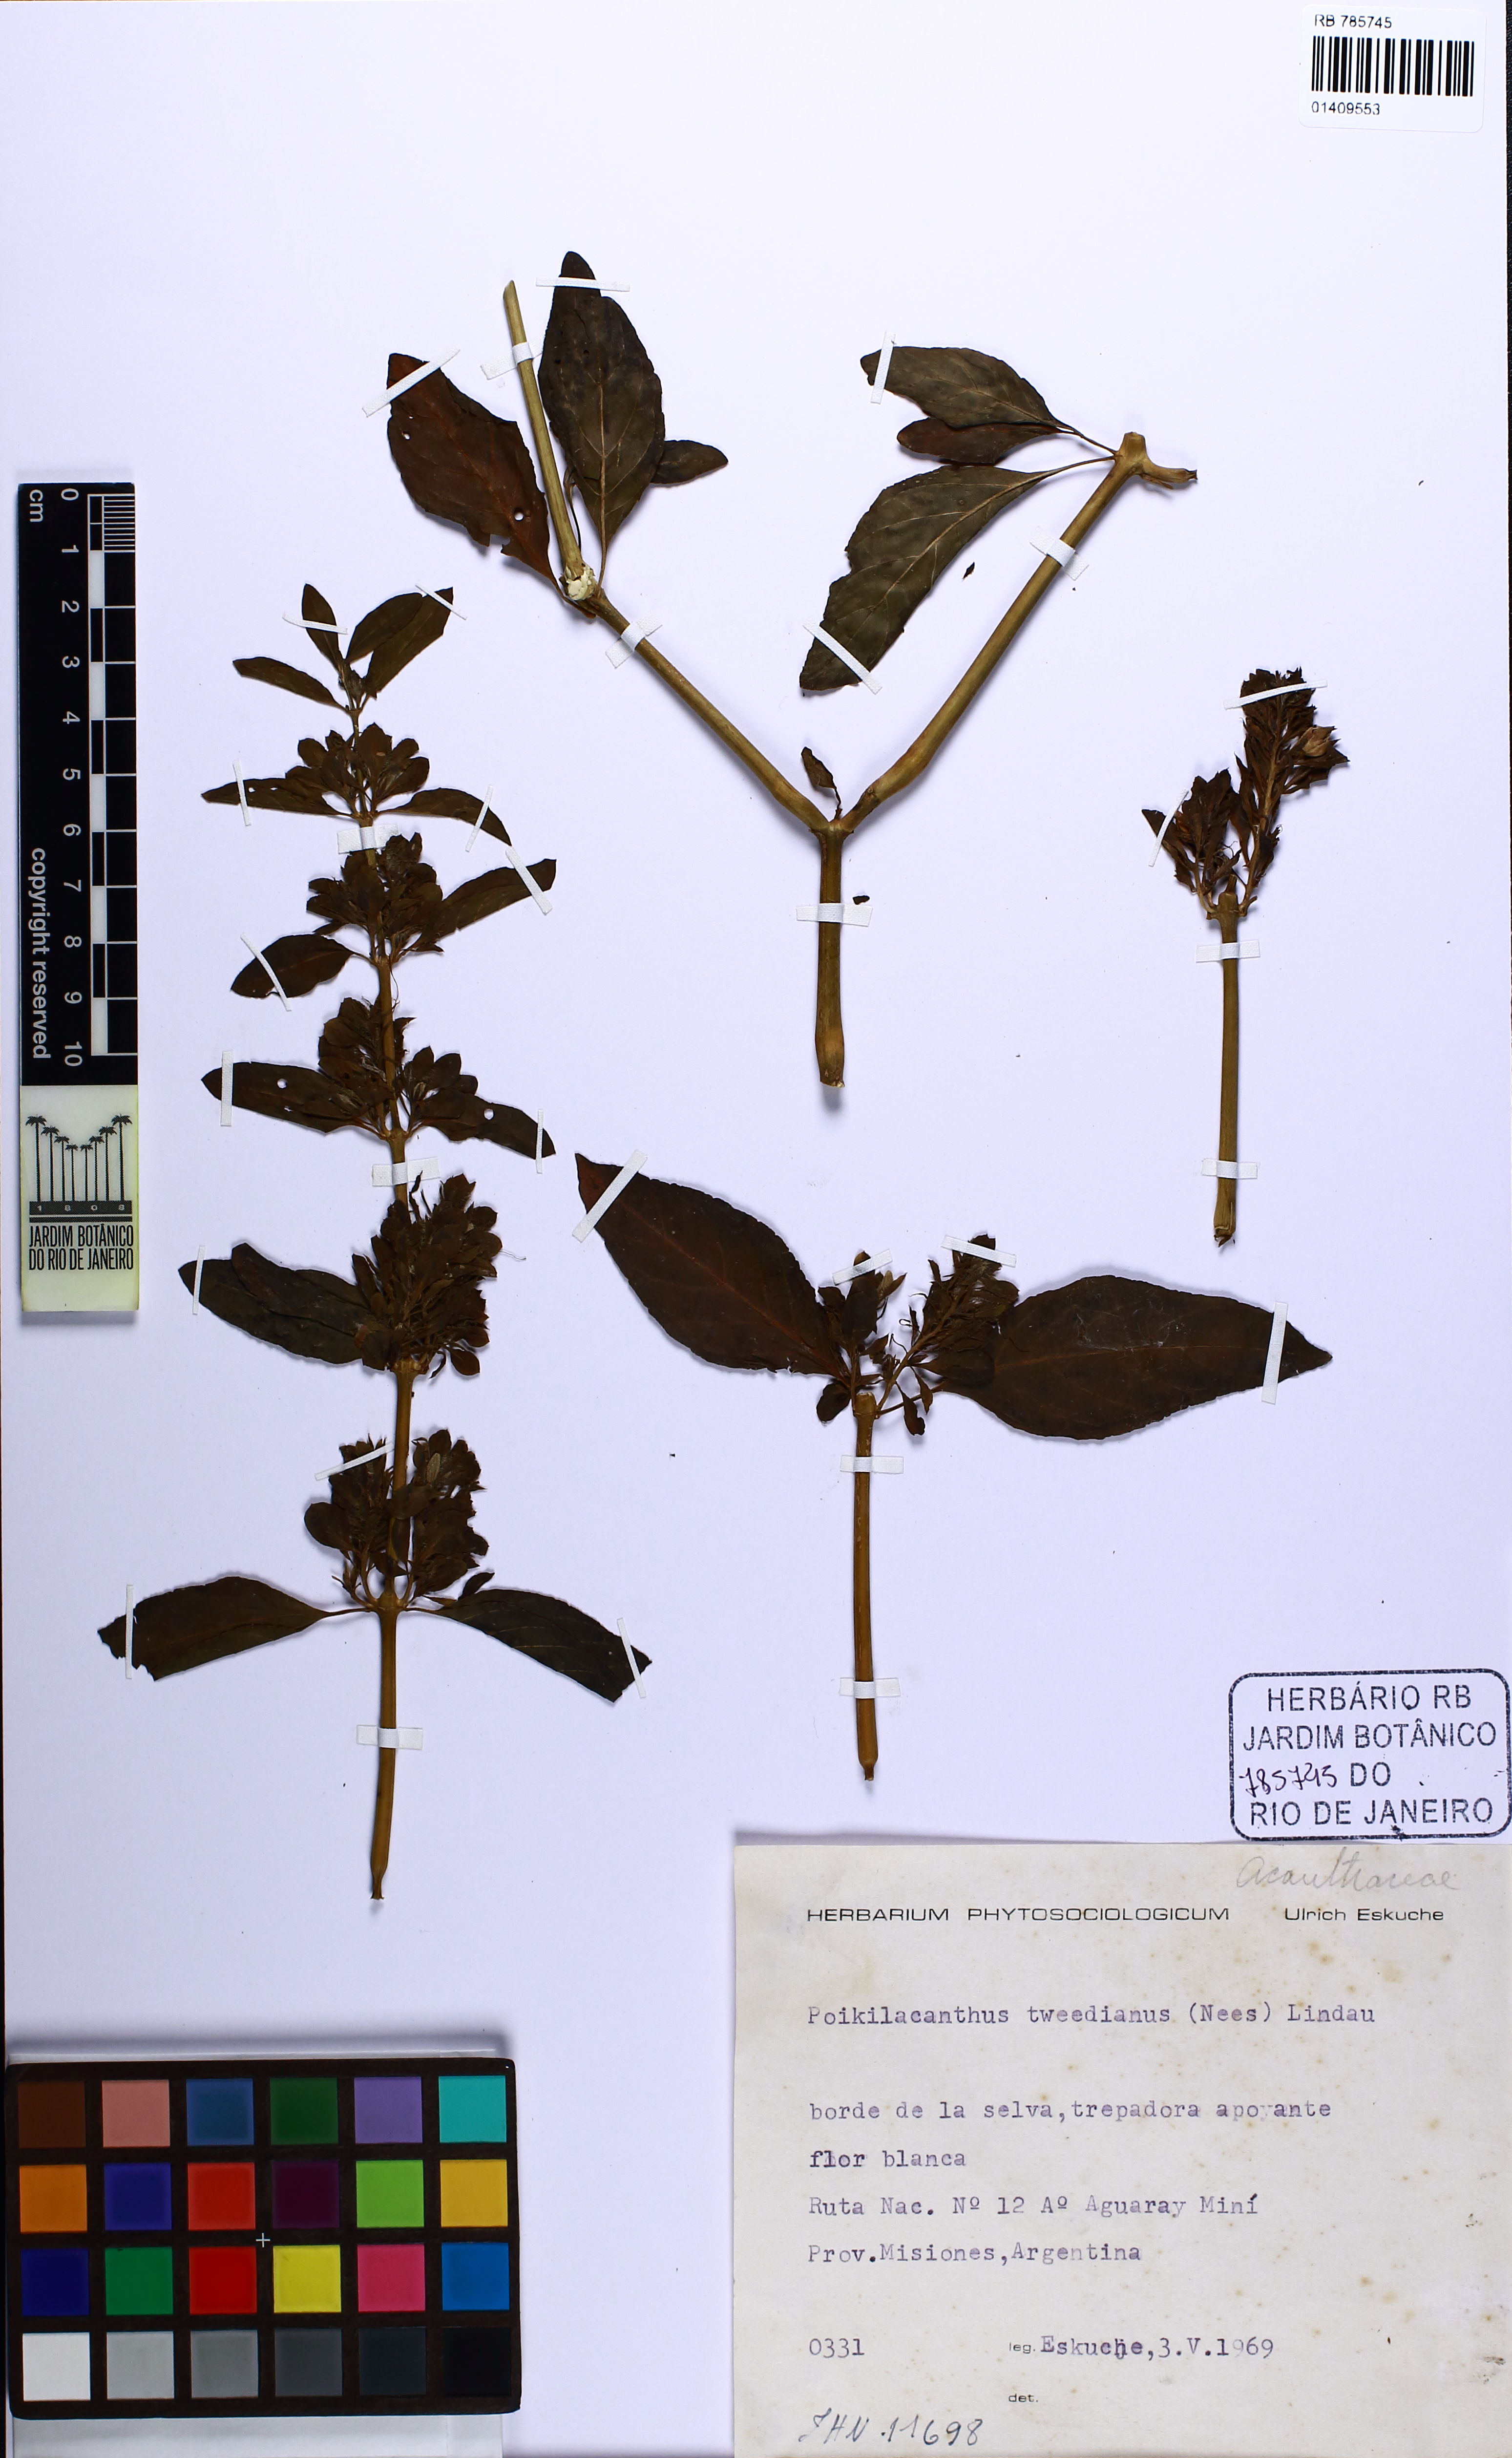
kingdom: Plantae
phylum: Tracheophyta
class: Magnoliopsida
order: Lamiales
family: Acanthaceae
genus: Poikilacanthus
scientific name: Poikilacanthus tweedianus
